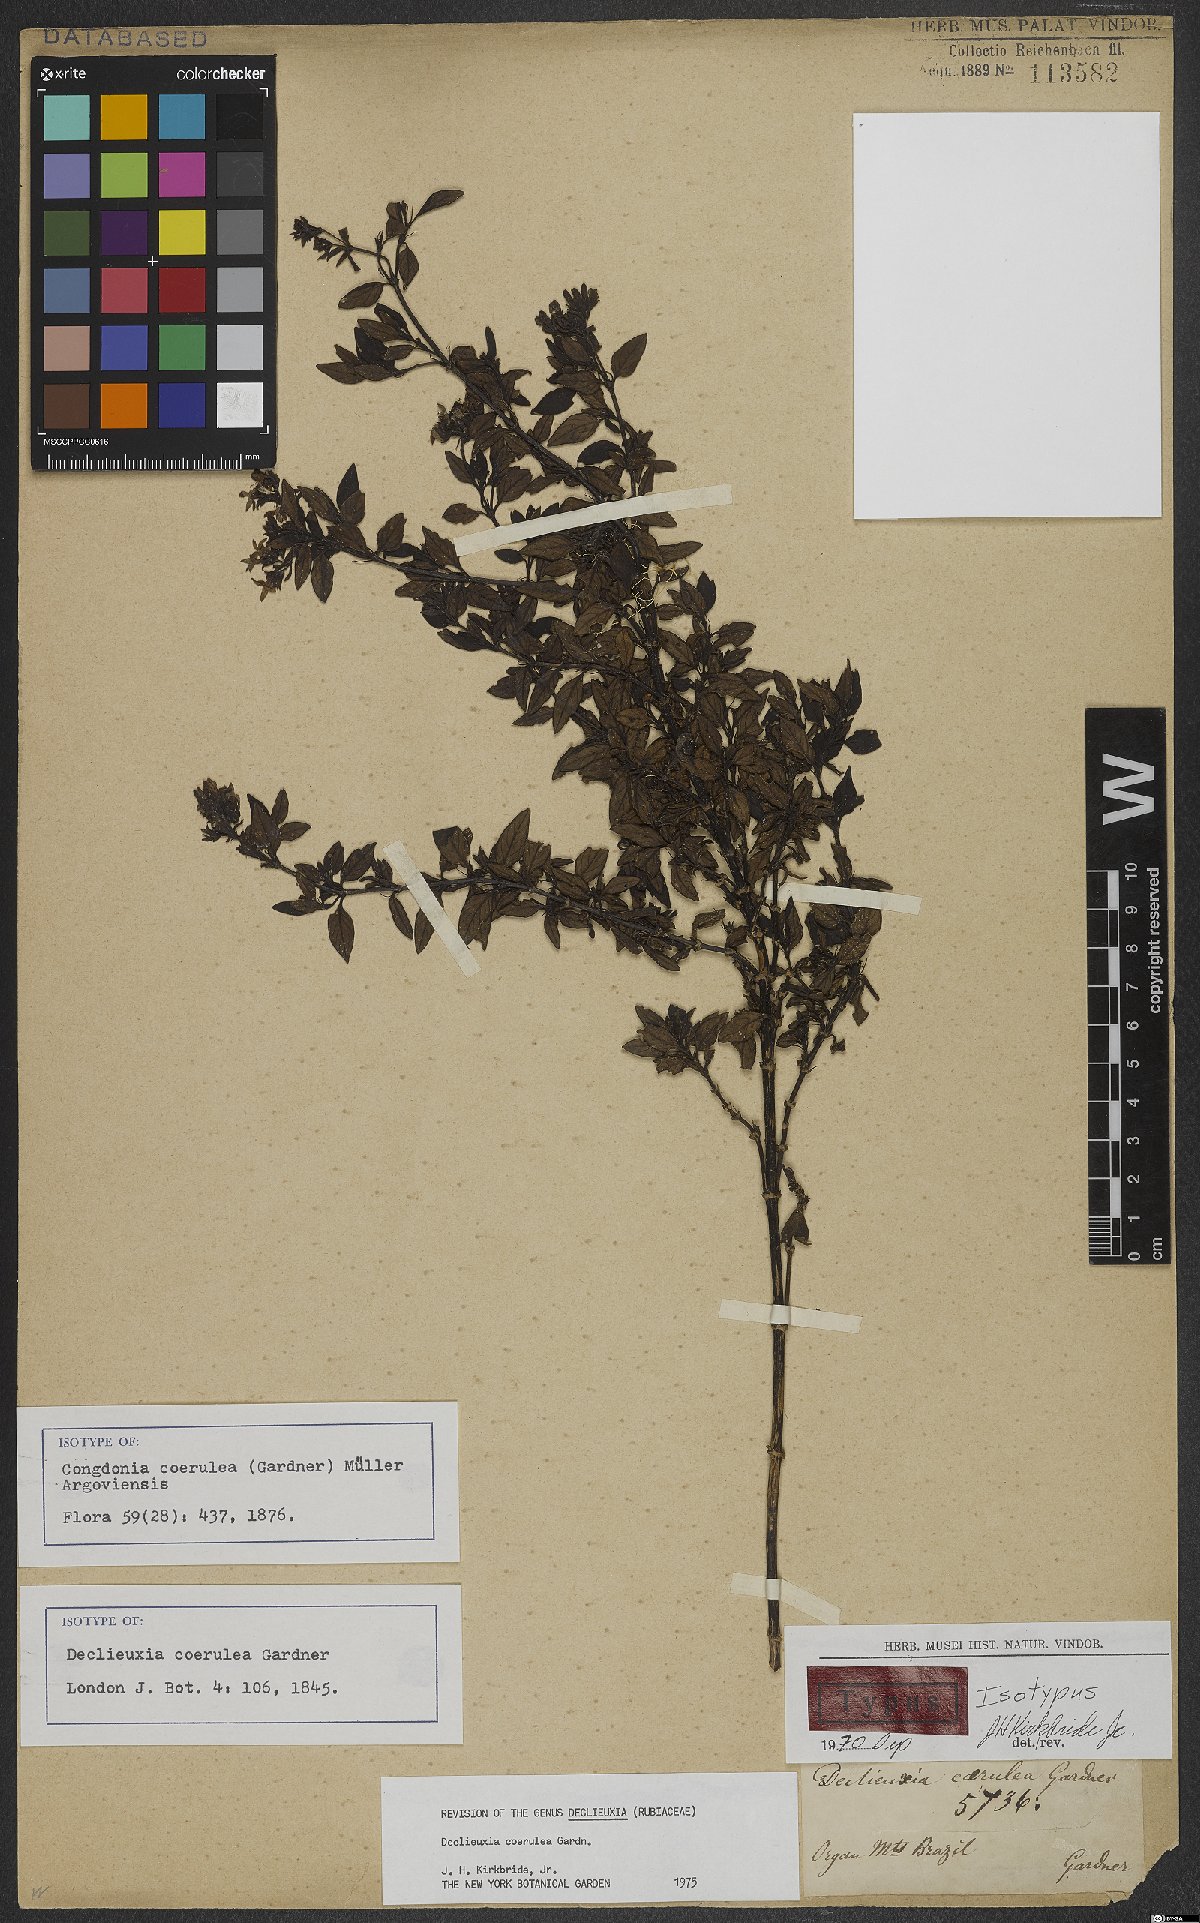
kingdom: Plantae
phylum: Tracheophyta
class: Magnoliopsida
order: Gentianales
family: Rubiaceae
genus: Declieuxia
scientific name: Declieuxia coerulea
